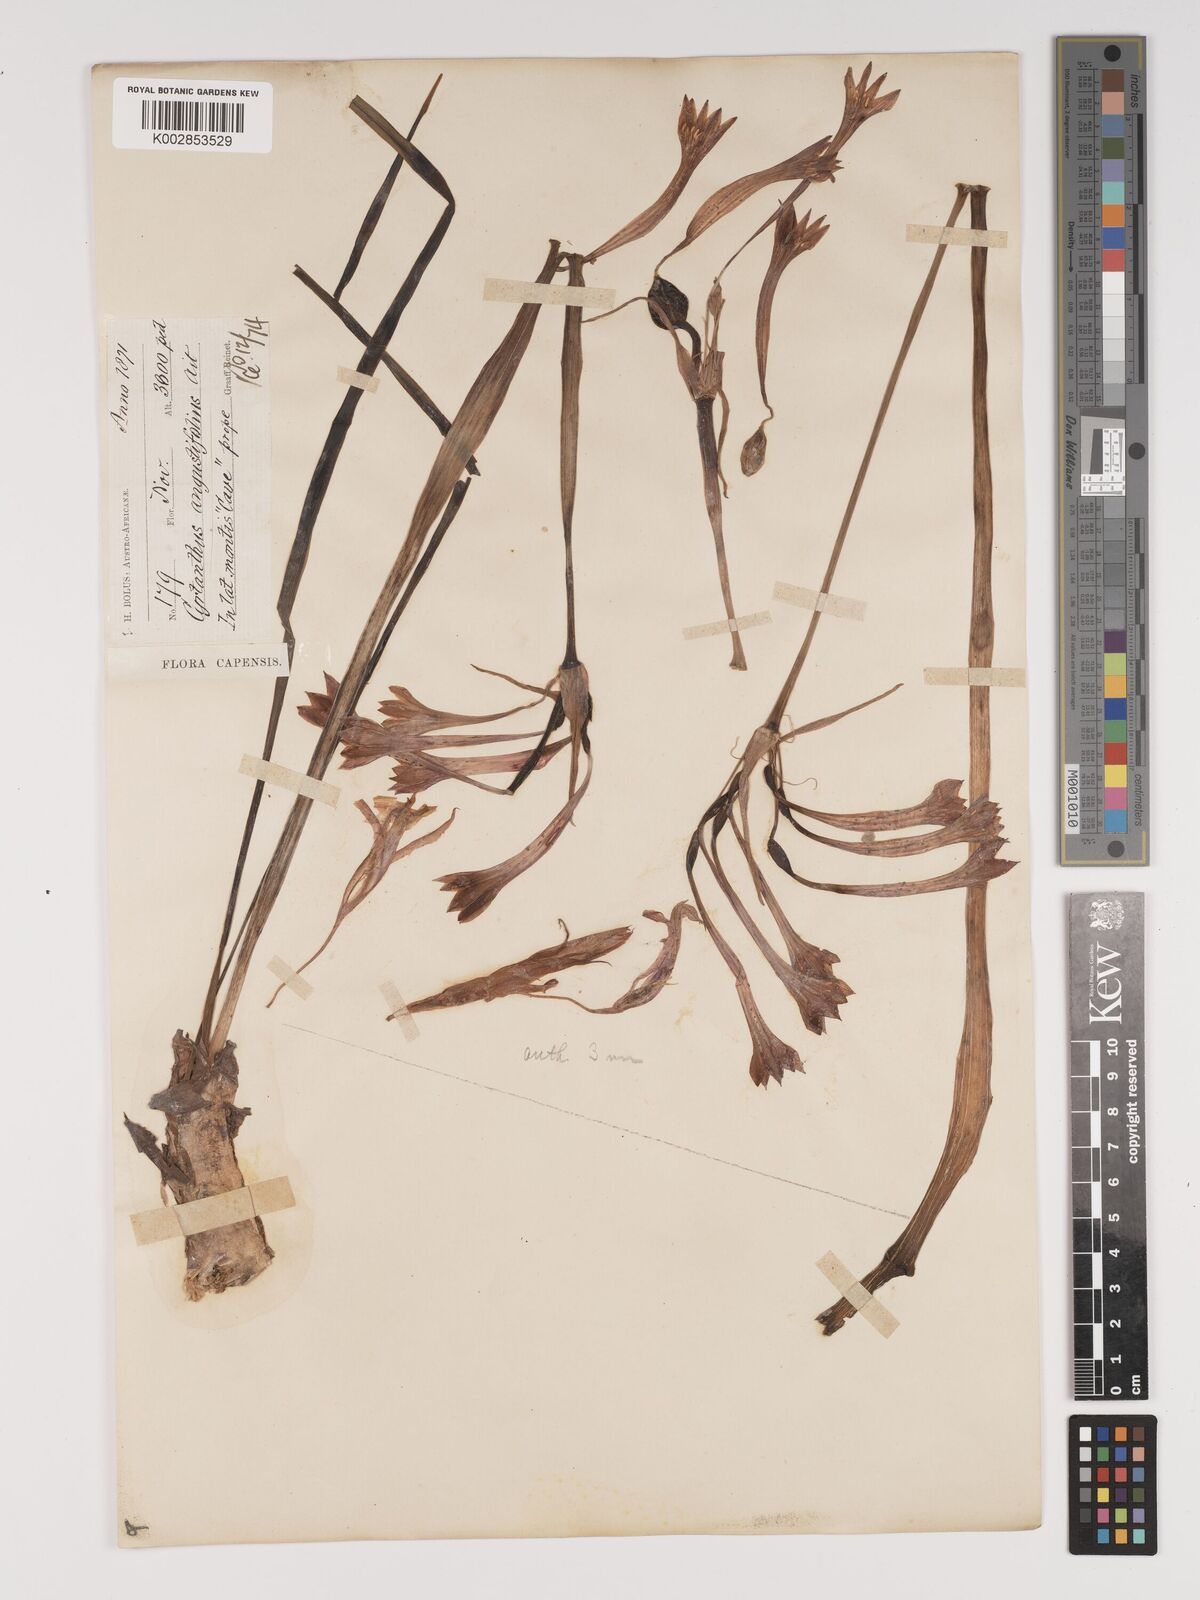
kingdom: Plantae
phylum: Tracheophyta
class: Liliopsida
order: Asparagales
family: Amaryllidaceae
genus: Cyrtanthus
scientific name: Cyrtanthus angustifolius
